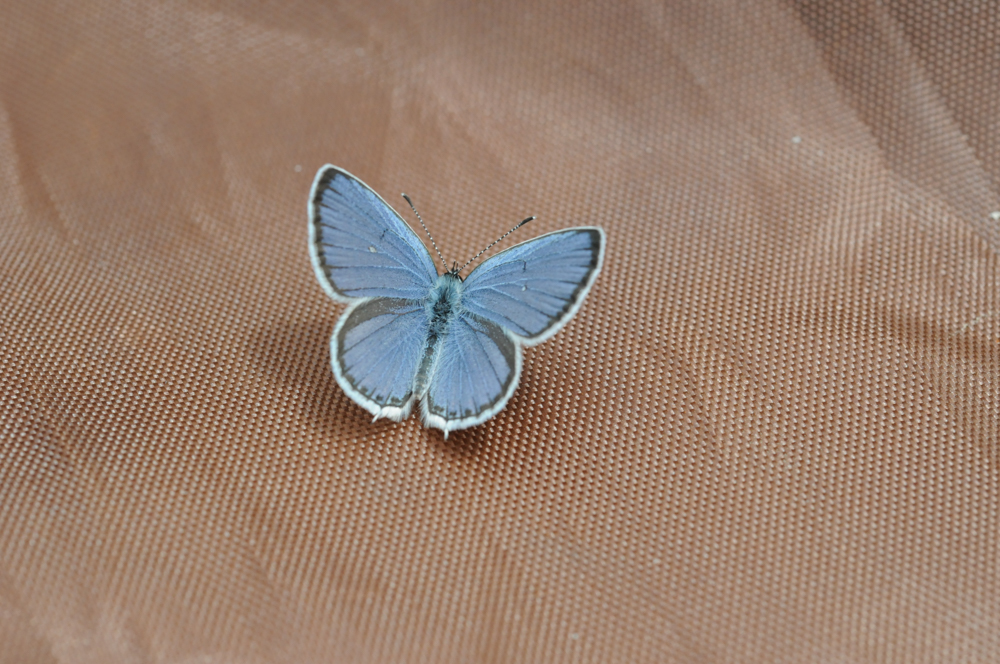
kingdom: Animalia
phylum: Arthropoda
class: Insecta
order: Lepidoptera
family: Lycaenidae
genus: Elkalyce
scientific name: Elkalyce argiades
